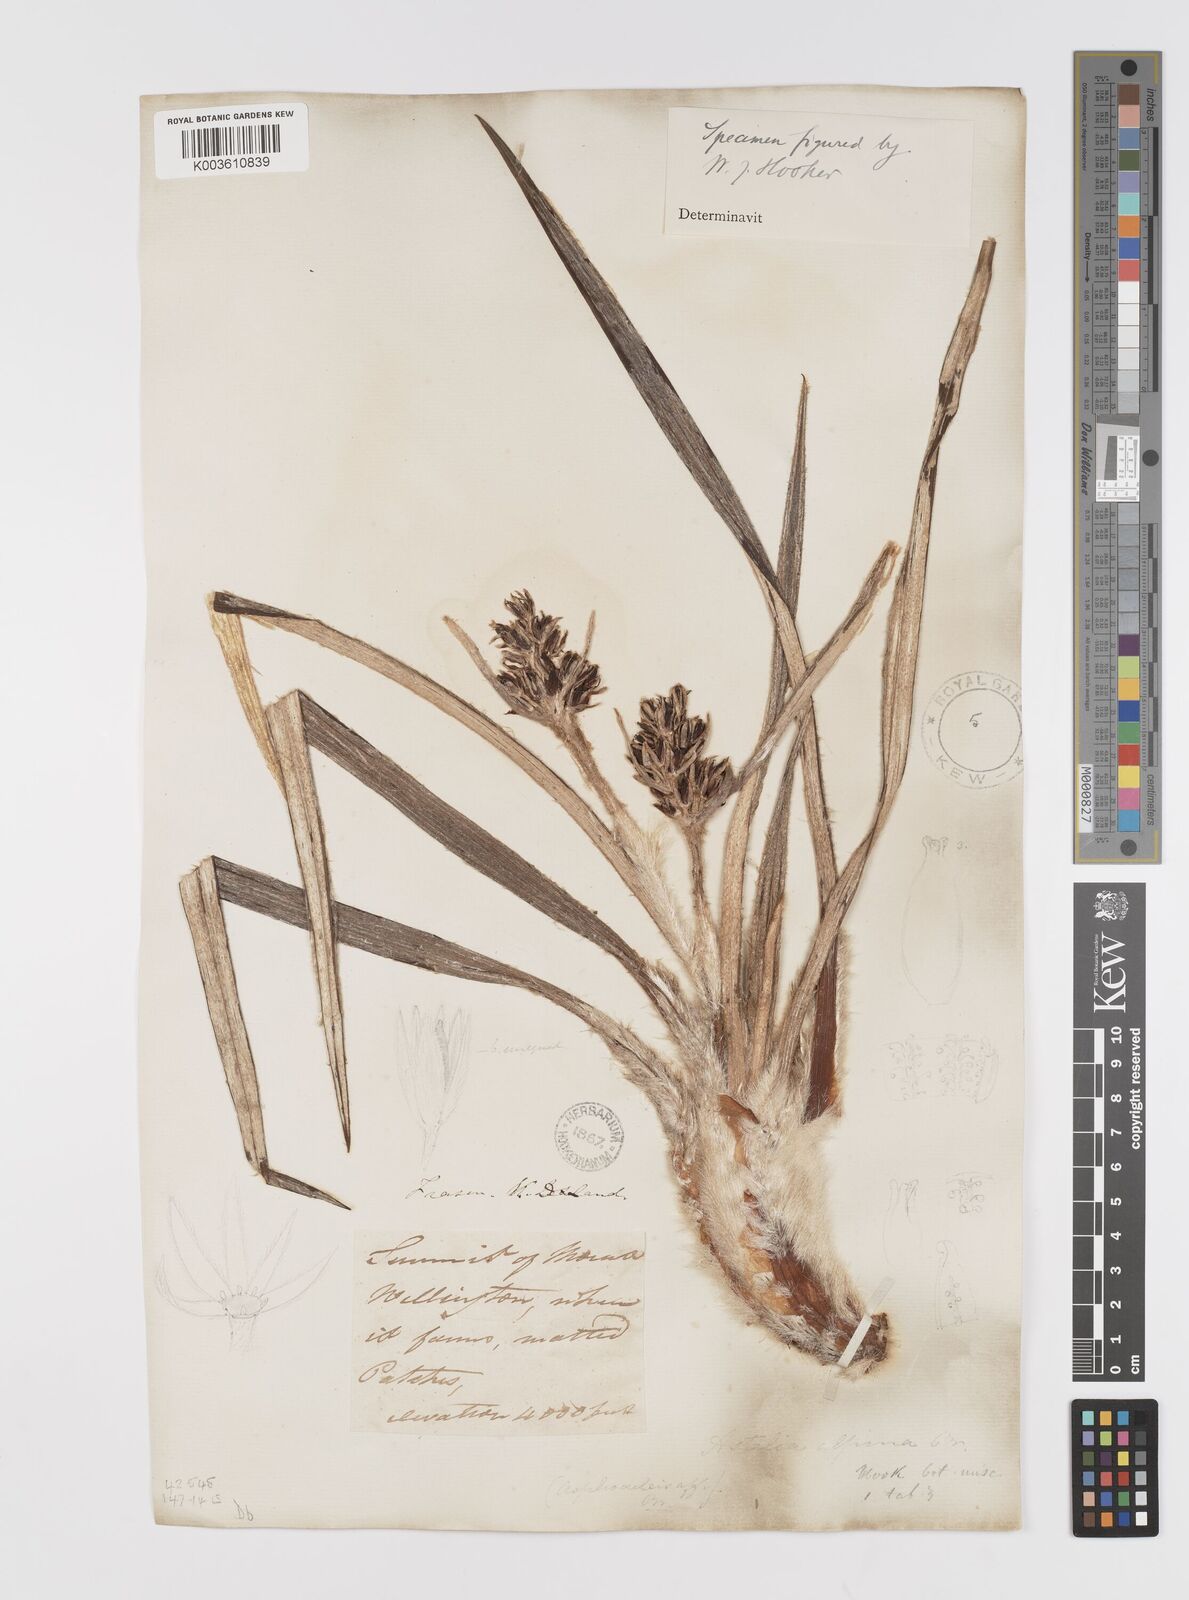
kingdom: Plantae
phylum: Tracheophyta
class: Liliopsida
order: Asparagales
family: Asteliaceae
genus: Astelia
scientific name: Astelia alpina
